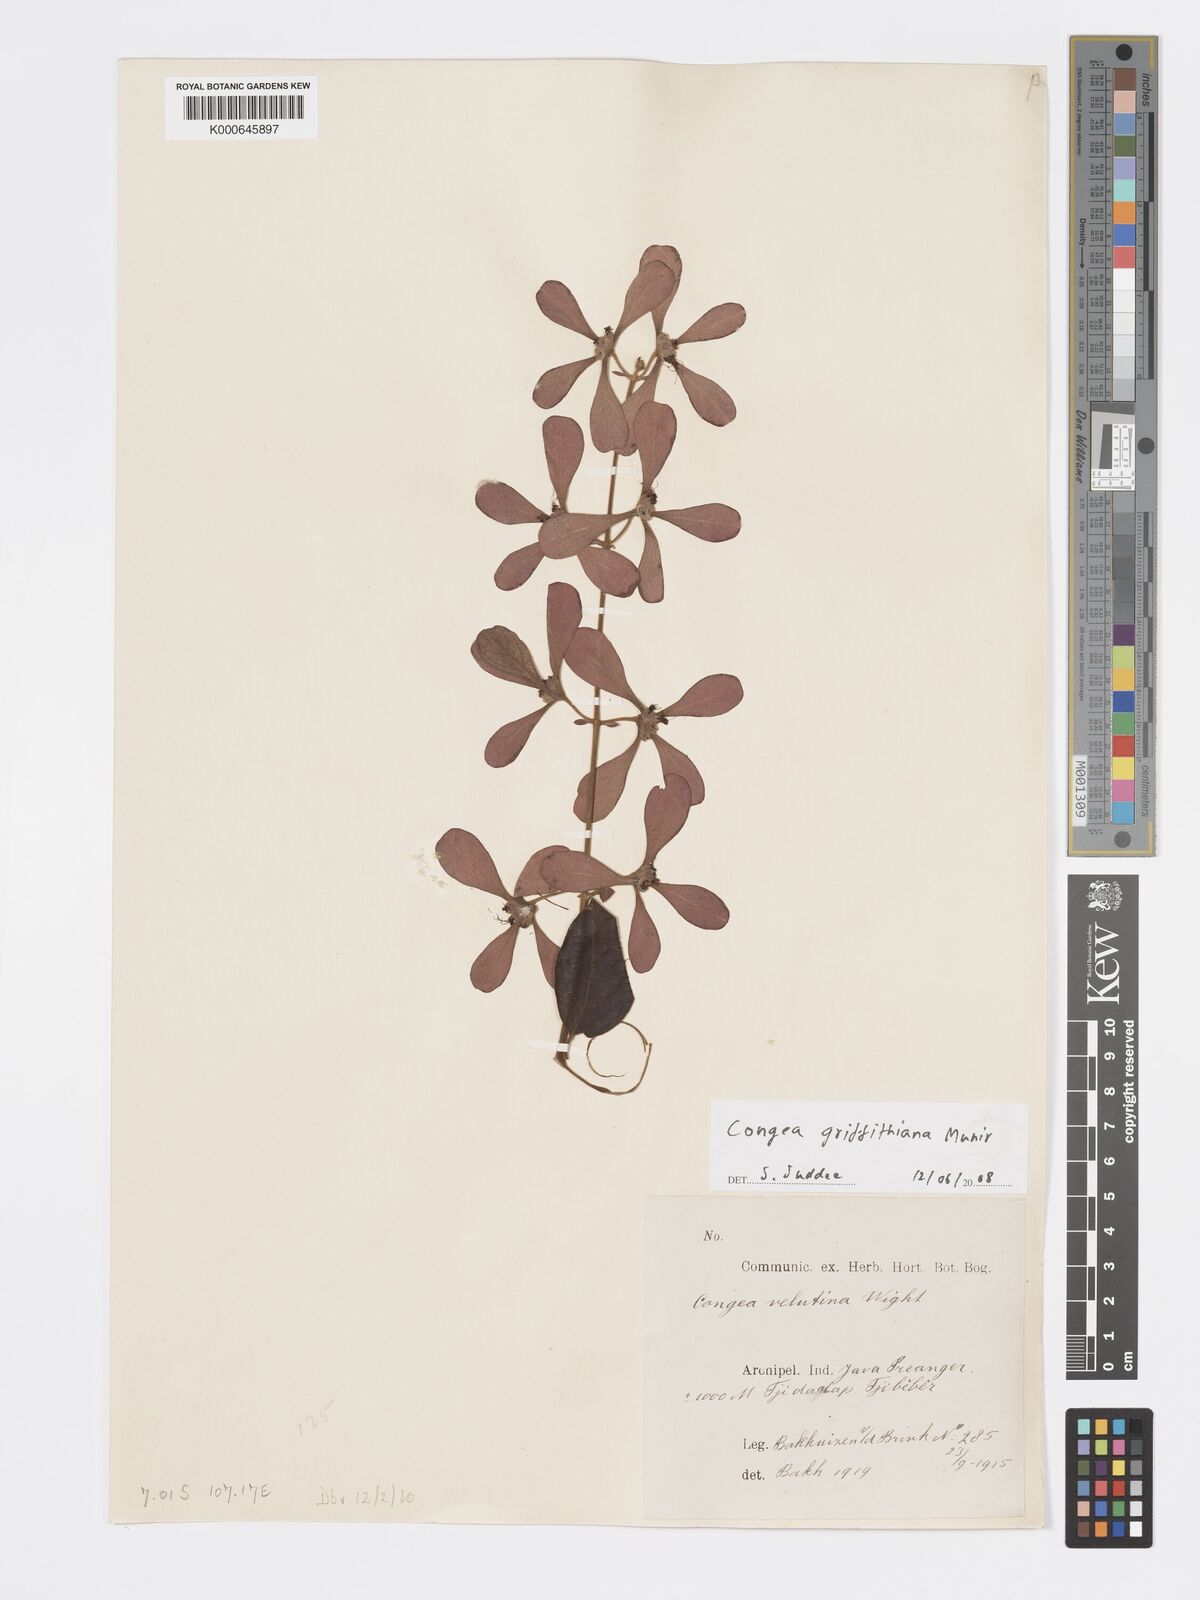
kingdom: Plantae
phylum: Tracheophyta
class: Magnoliopsida
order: Lamiales
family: Lamiaceae
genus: Congea
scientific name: Congea
